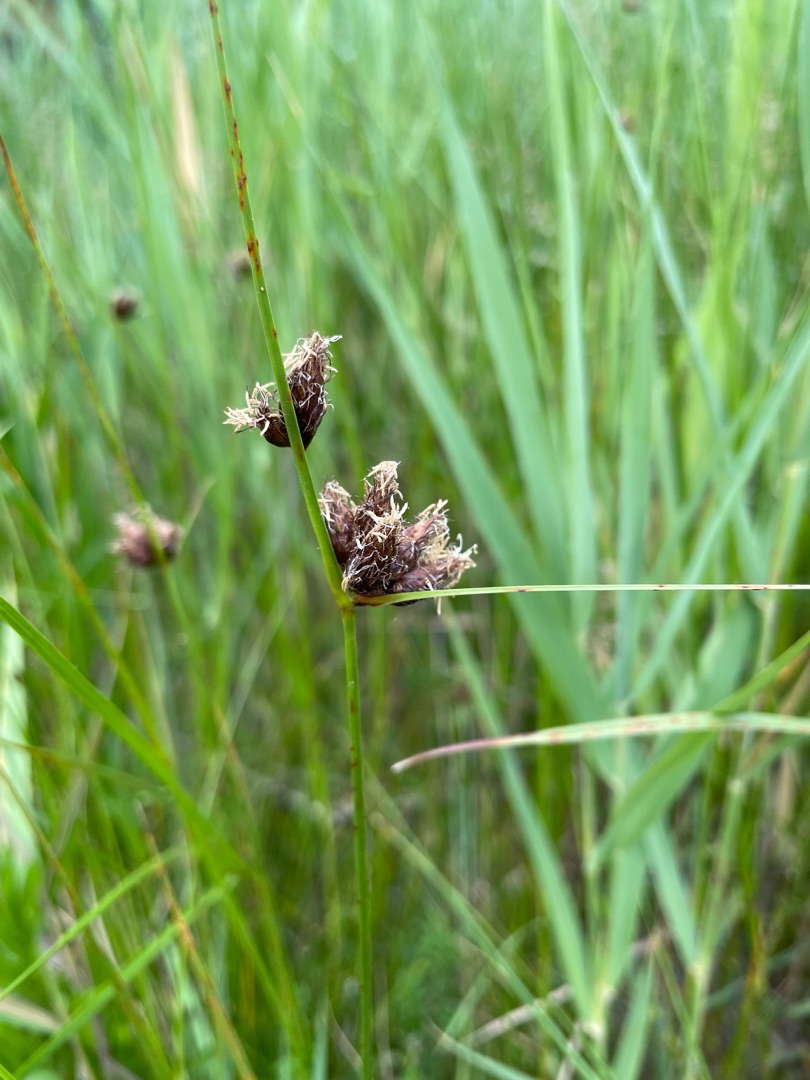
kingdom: Plantae
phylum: Tracheophyta
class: Liliopsida
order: Poales
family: Cyperaceae
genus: Bolboschoenus
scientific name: Bolboschoenus maritimus
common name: Strand-kogleaks
